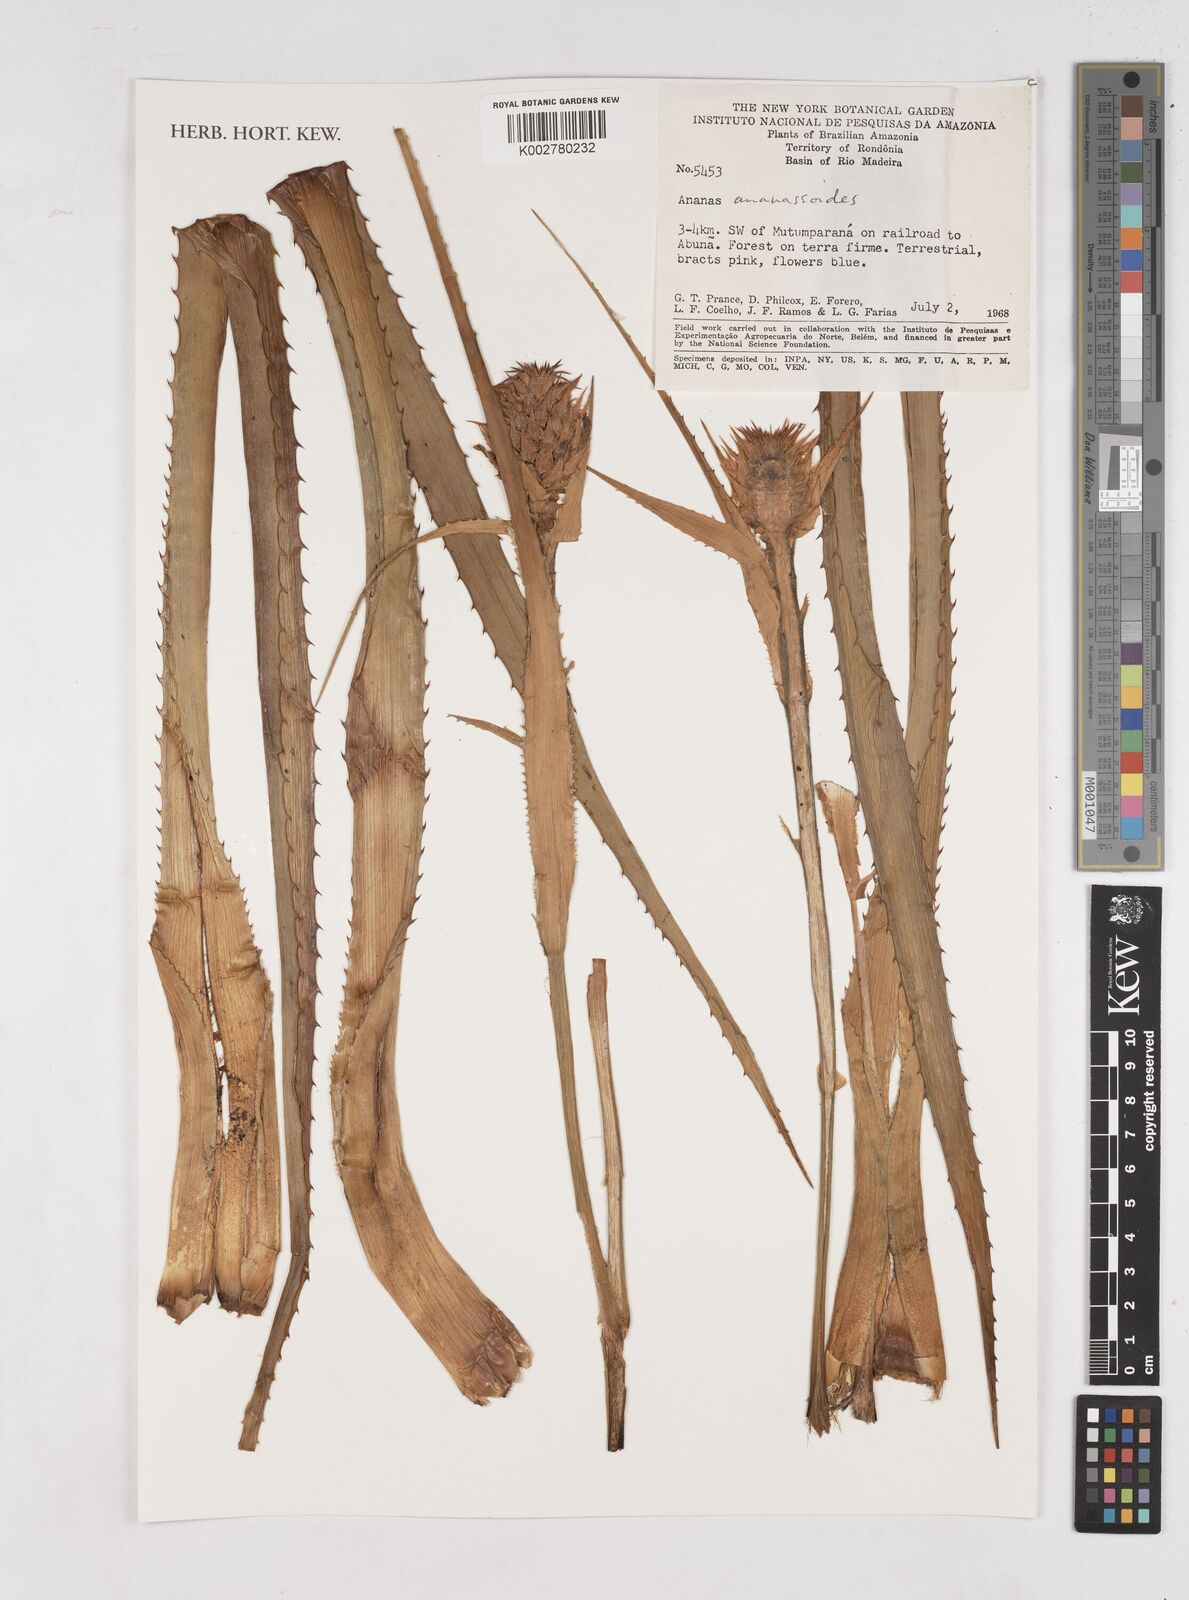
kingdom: Plantae
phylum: Tracheophyta
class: Liliopsida
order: Poales
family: Bromeliaceae
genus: Ananas
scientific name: Ananas comosus
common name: Pineapple
